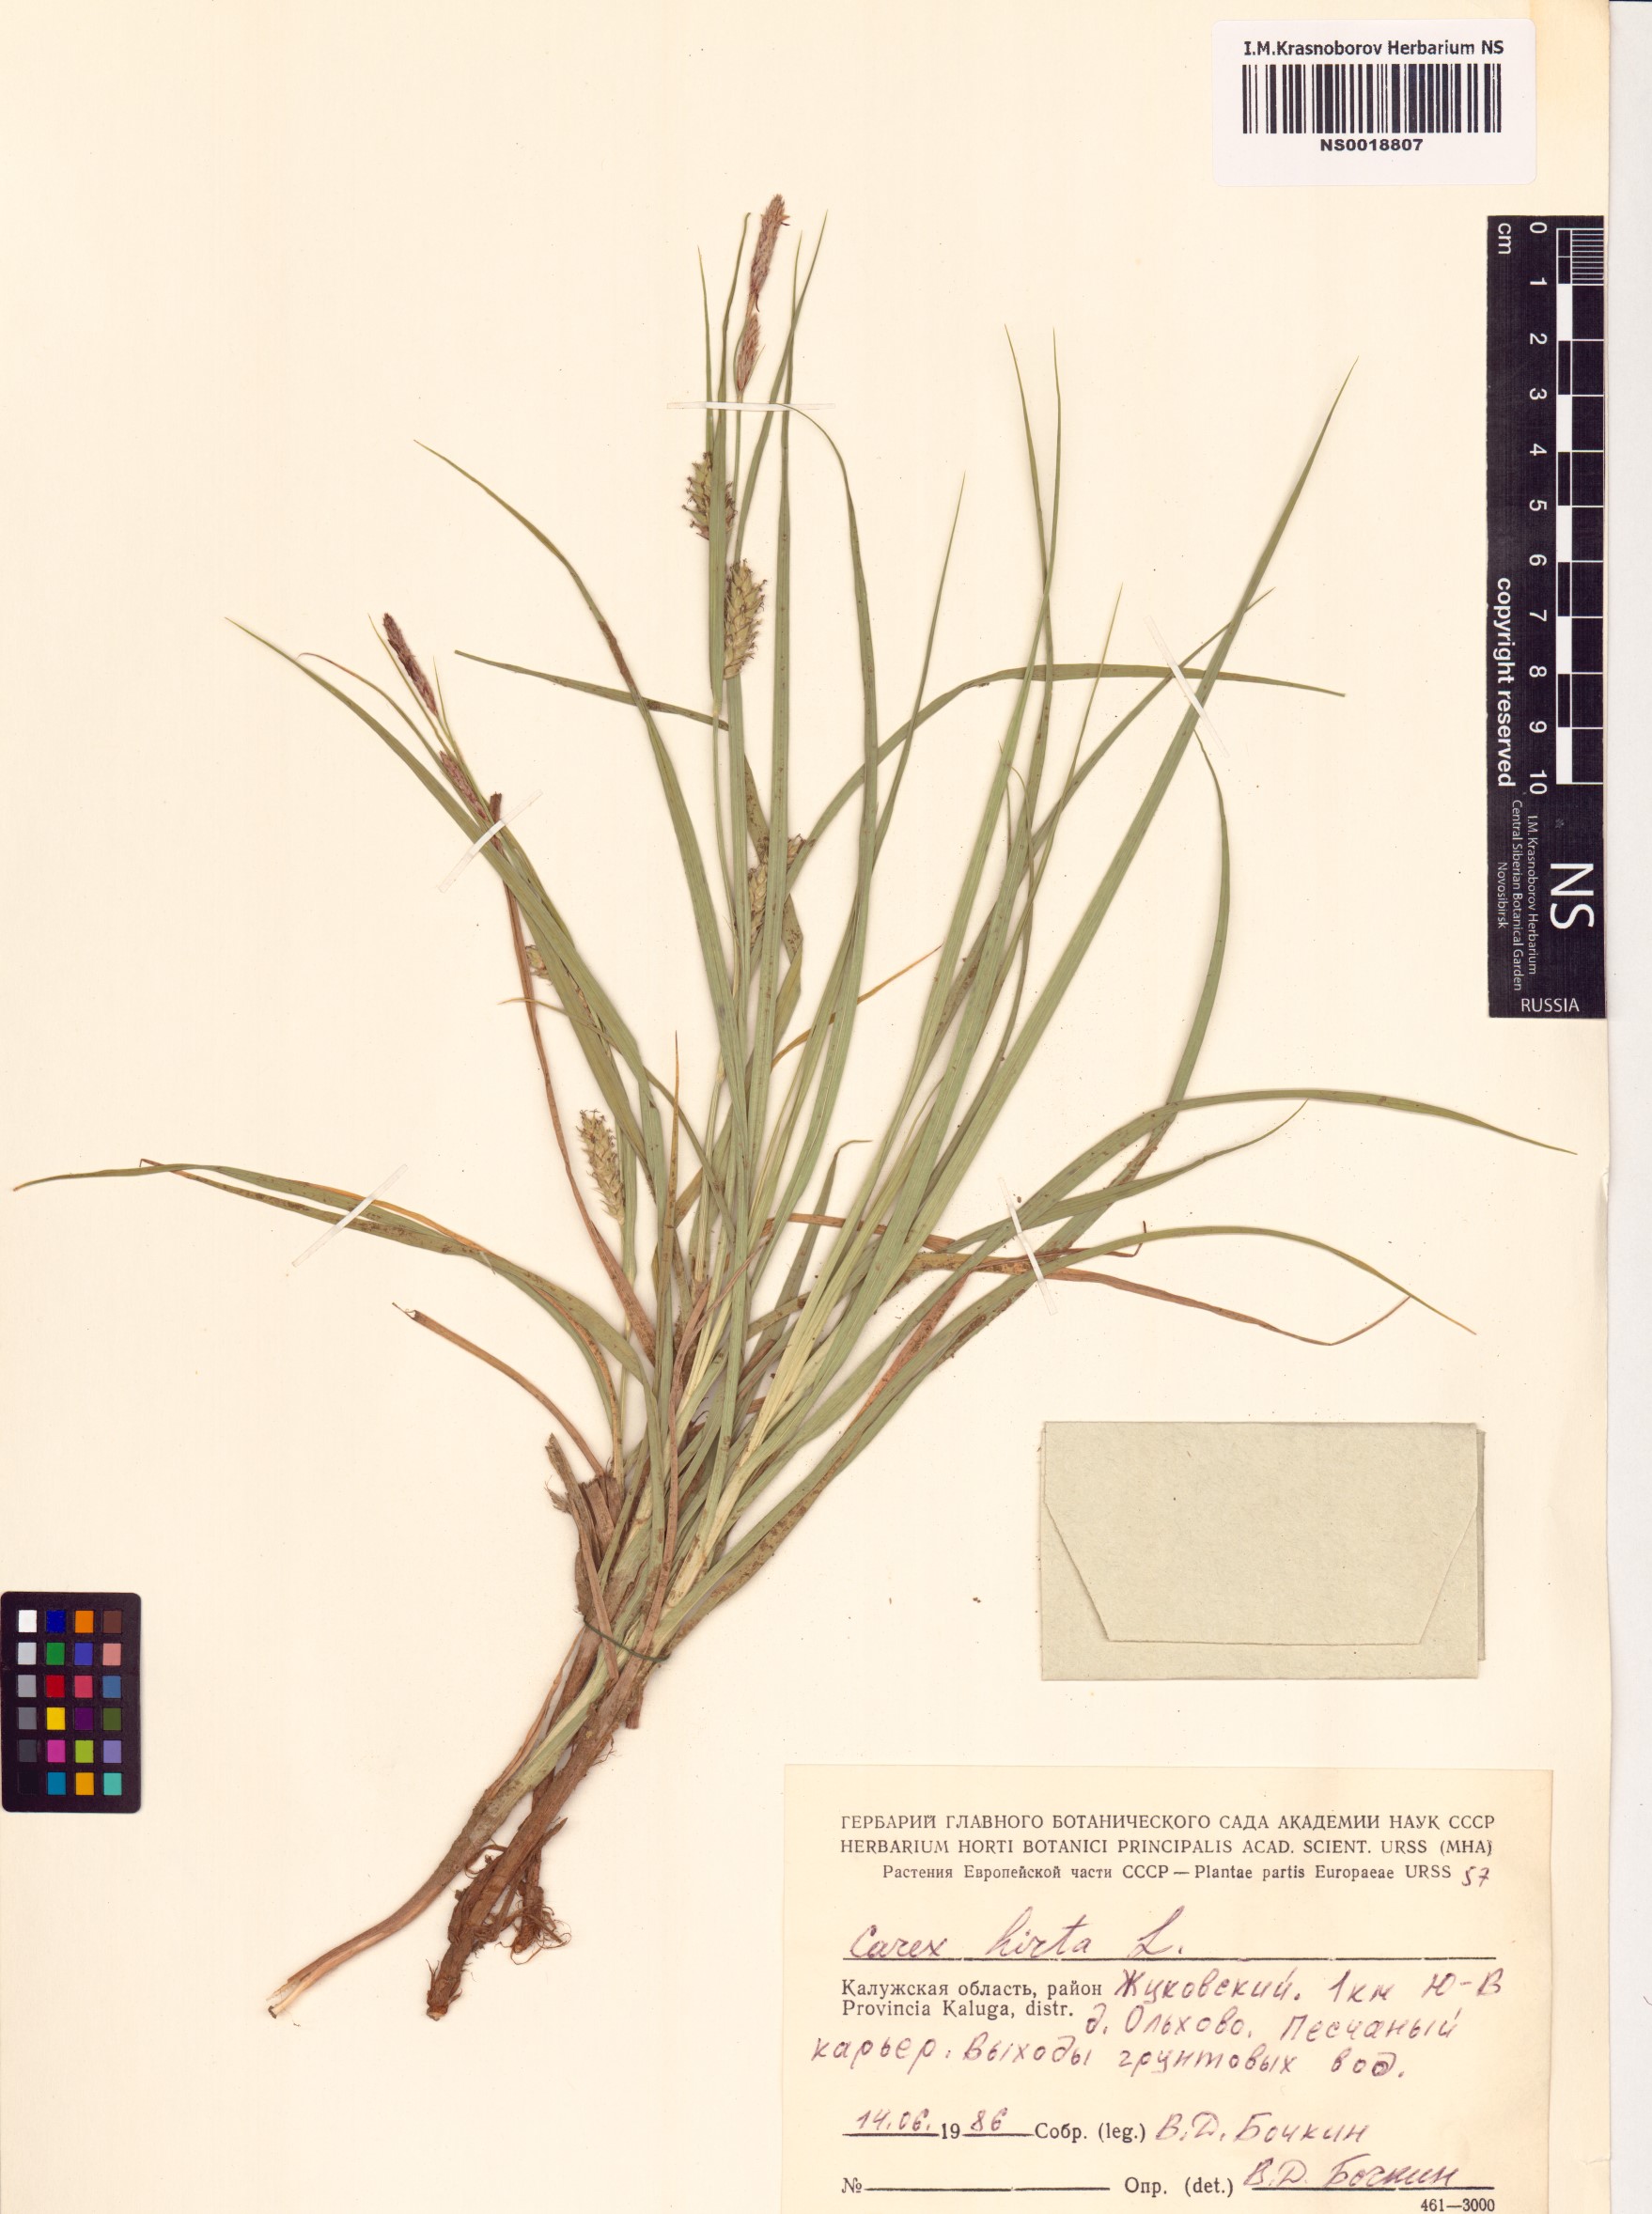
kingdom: Plantae
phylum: Tracheophyta
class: Liliopsida
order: Poales
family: Cyperaceae
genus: Carex
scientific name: Carex hirta
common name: Hairy sedge
